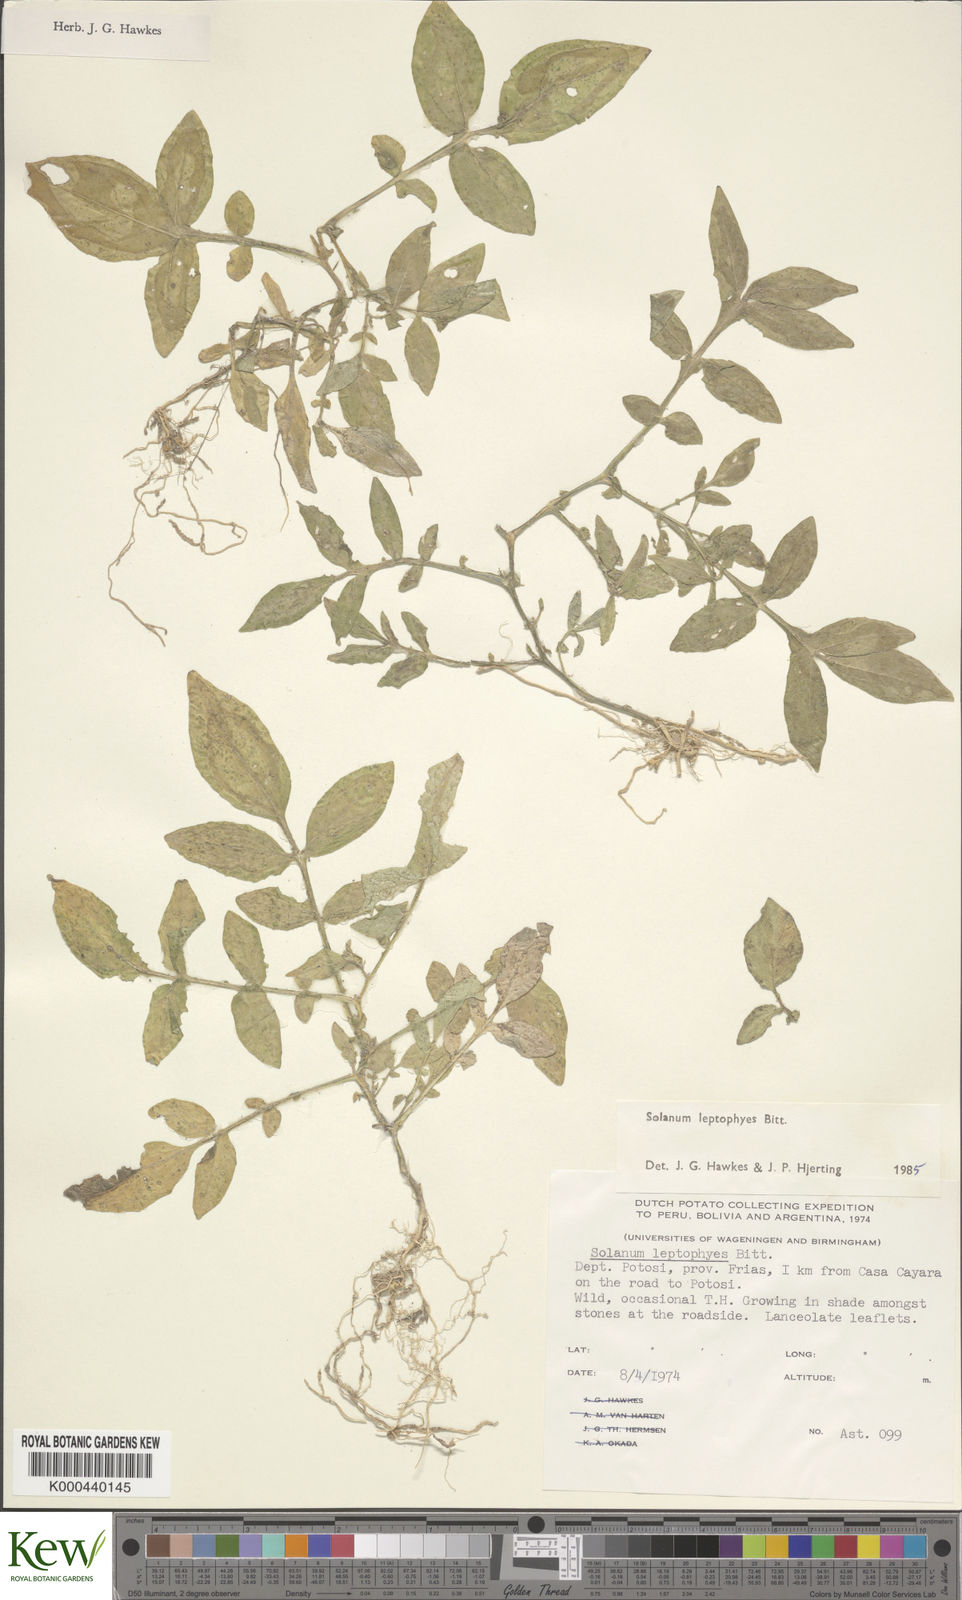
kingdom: Plantae
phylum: Tracheophyta
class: Magnoliopsida
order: Solanales
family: Solanaceae
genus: Solanum
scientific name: Solanum brevicaule
